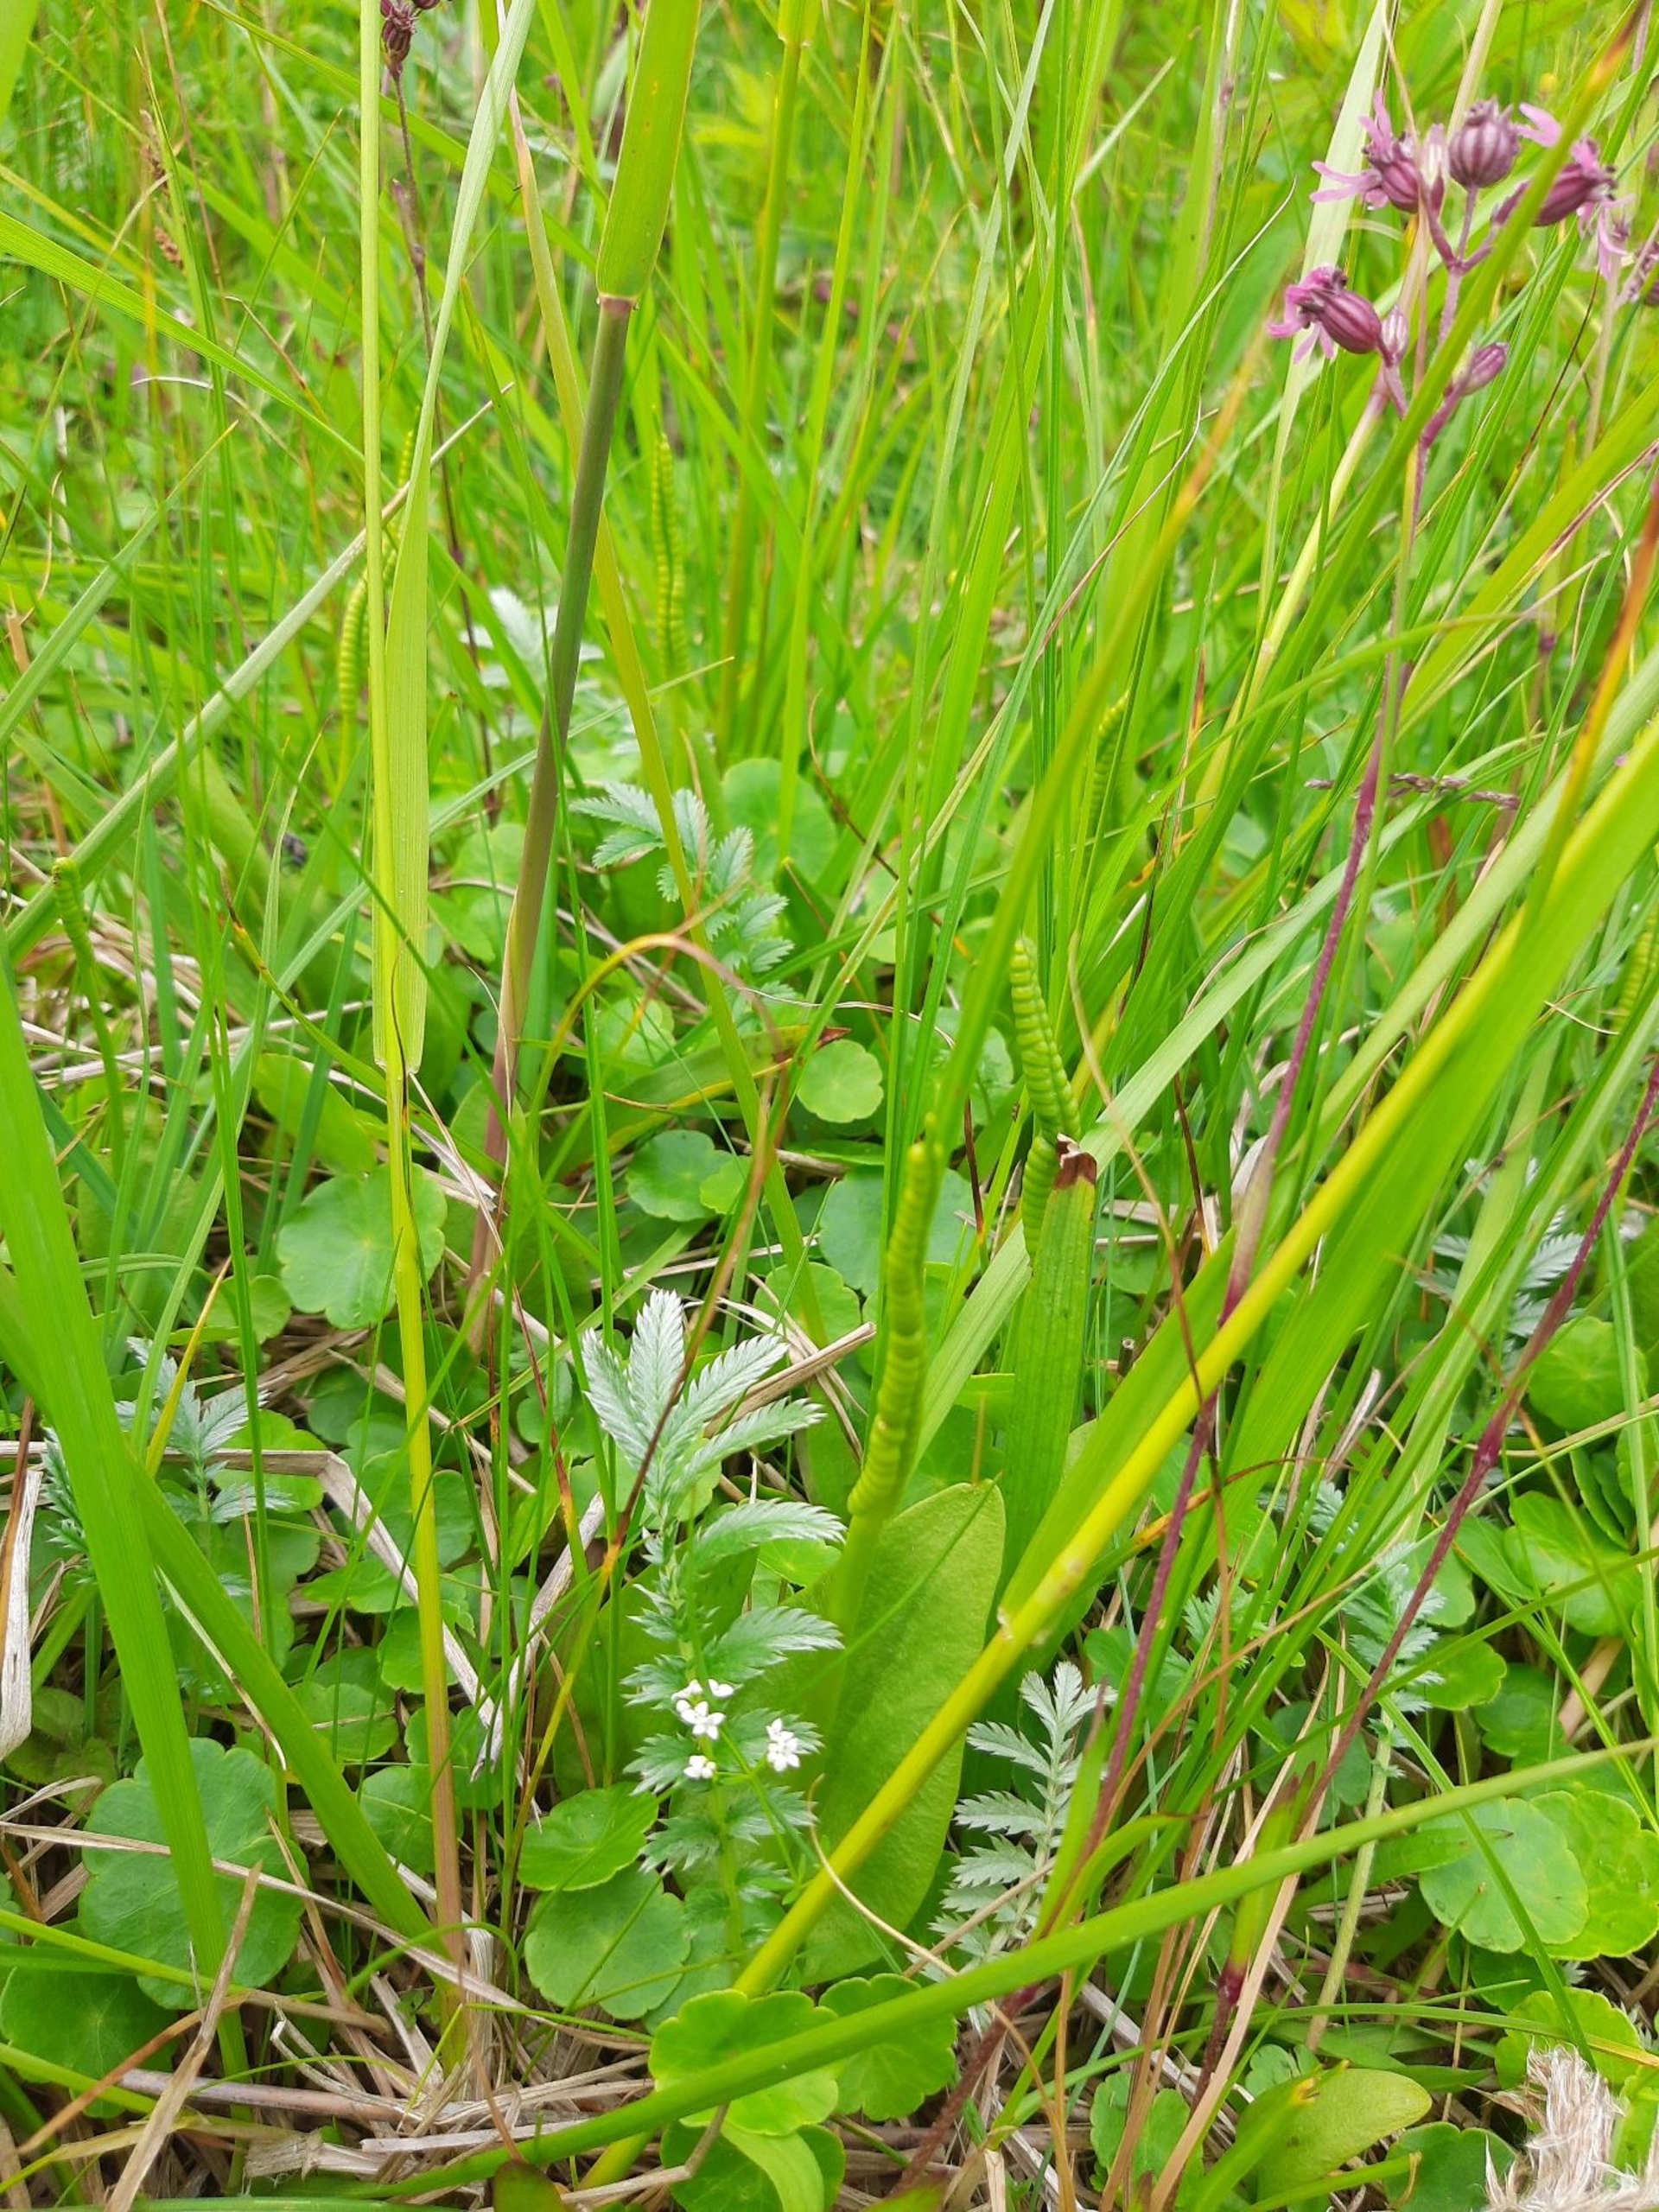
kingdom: Plantae
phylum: Tracheophyta
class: Polypodiopsida
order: Ophioglossales
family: Ophioglossaceae
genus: Ophioglossum
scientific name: Ophioglossum vulgatum
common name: Slangetunge
